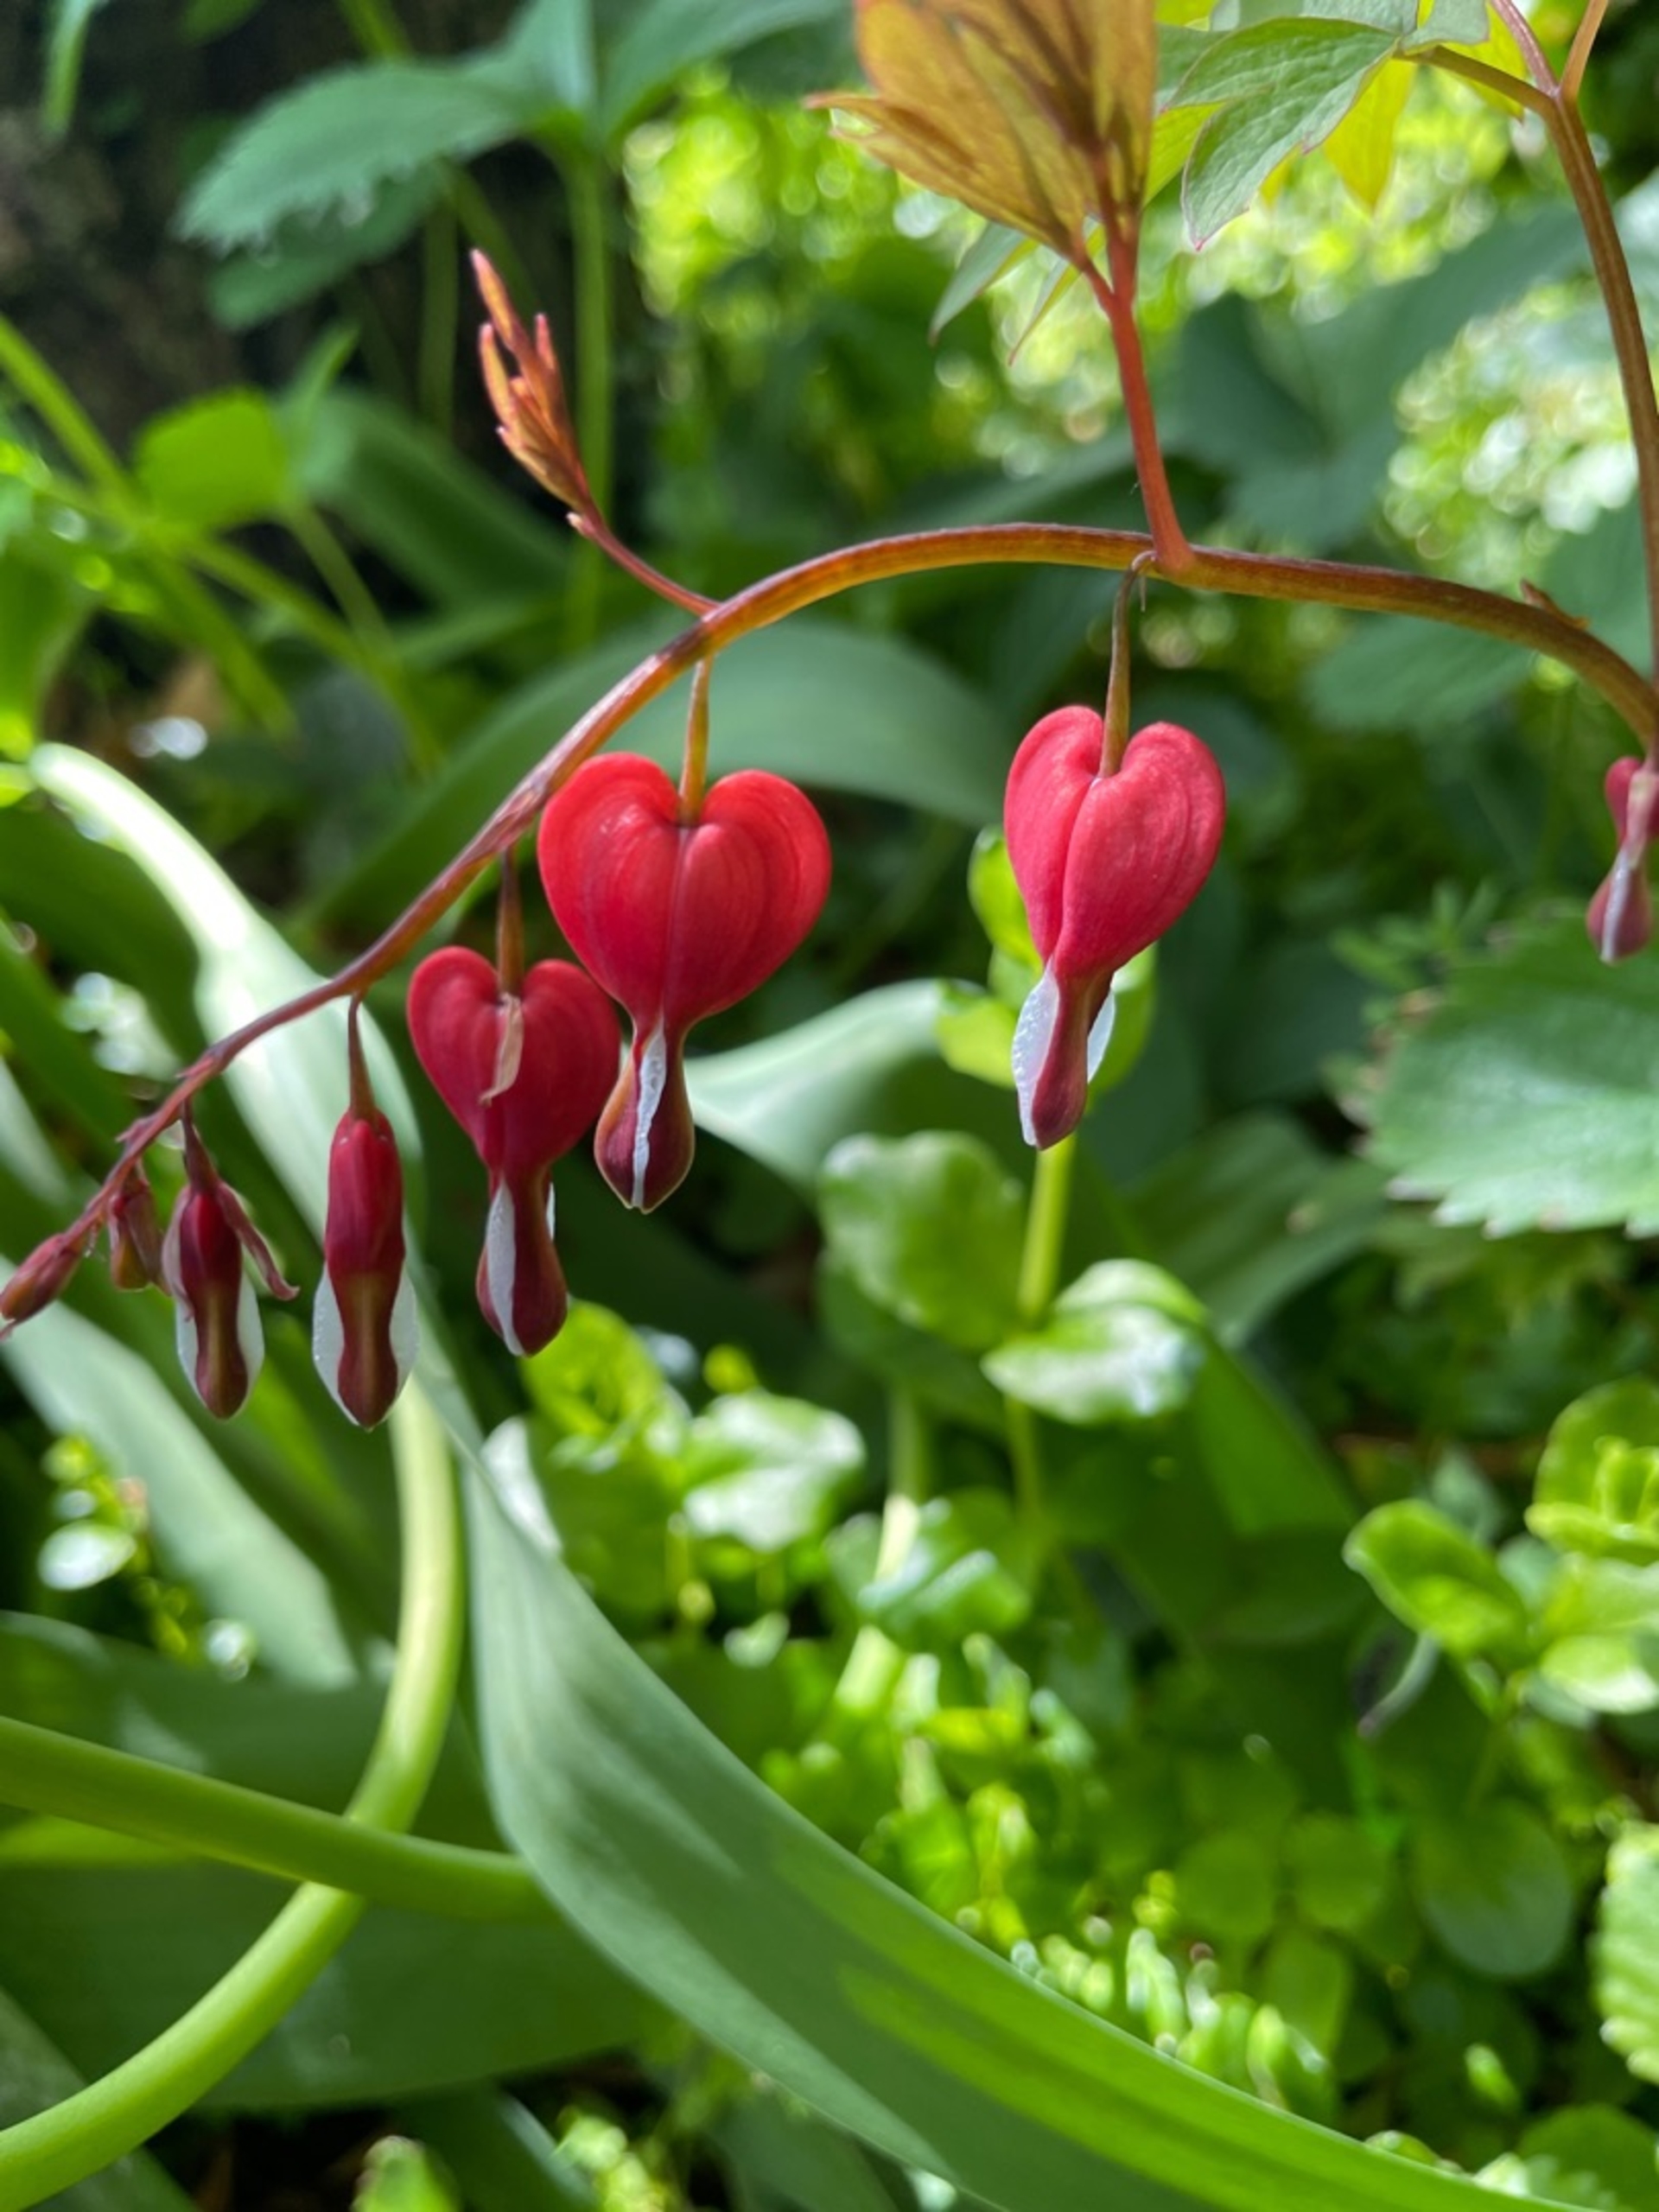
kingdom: Plantae
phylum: Tracheophyta
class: Magnoliopsida
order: Ranunculales
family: Papaveraceae
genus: Lamprocapnos
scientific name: Lamprocapnos spectabilis
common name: Løjtnantshjerte
